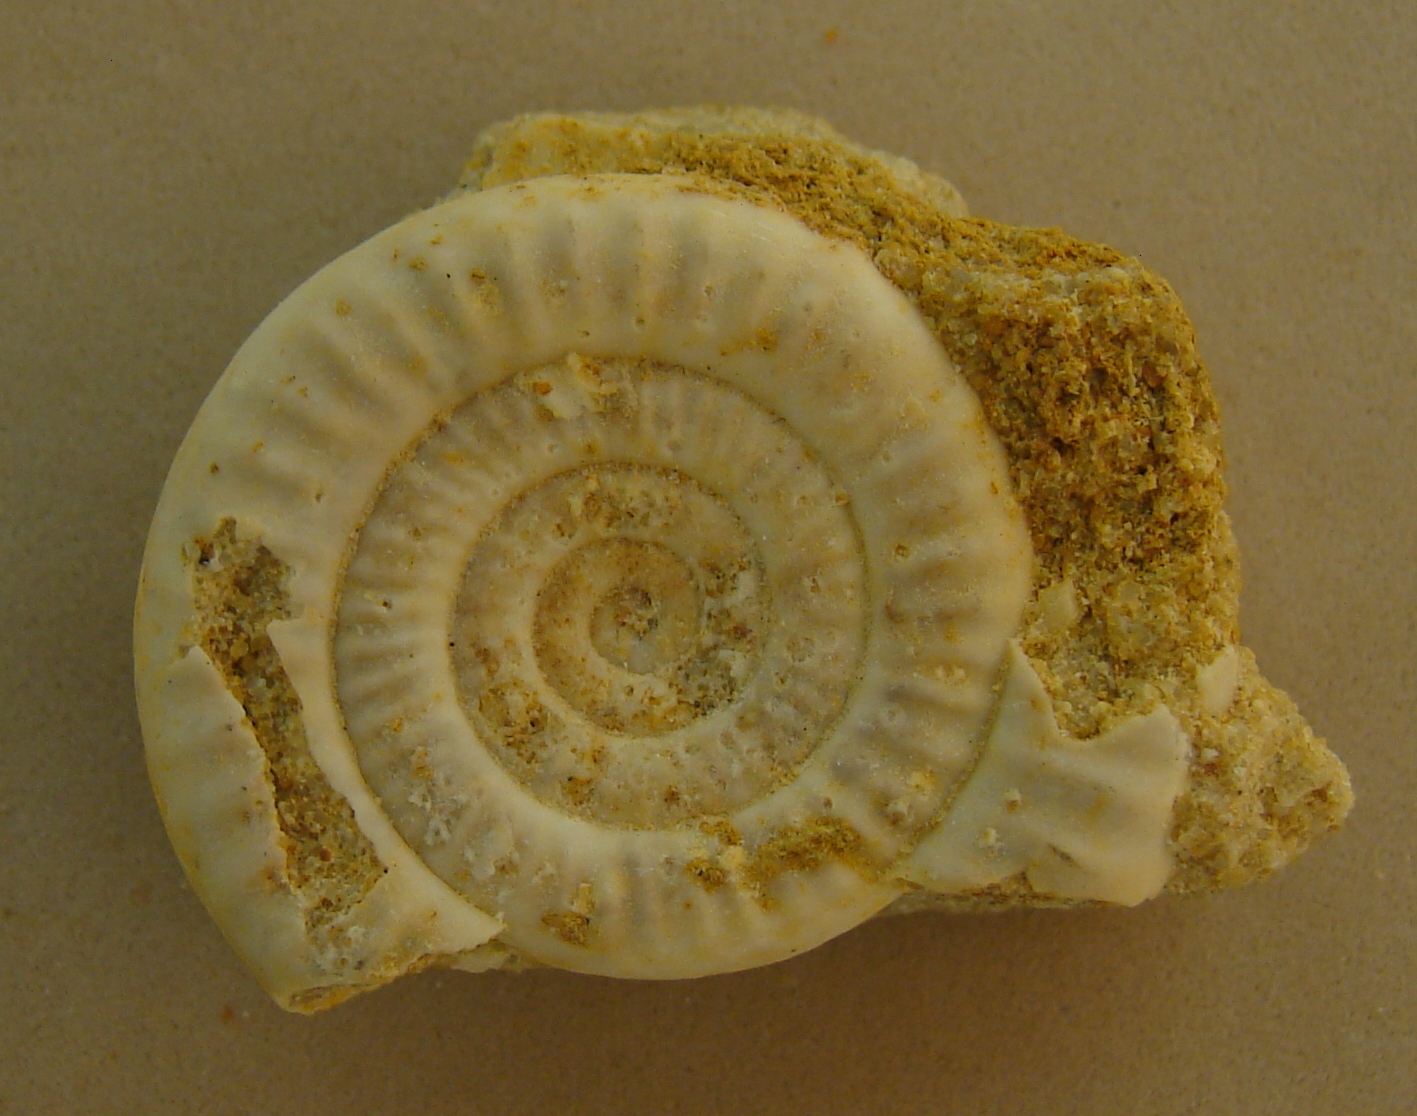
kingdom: Animalia
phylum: Mollusca
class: Cephalopoda
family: Psiloceratidae
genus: Caloceras
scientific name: Caloceras pirondi
